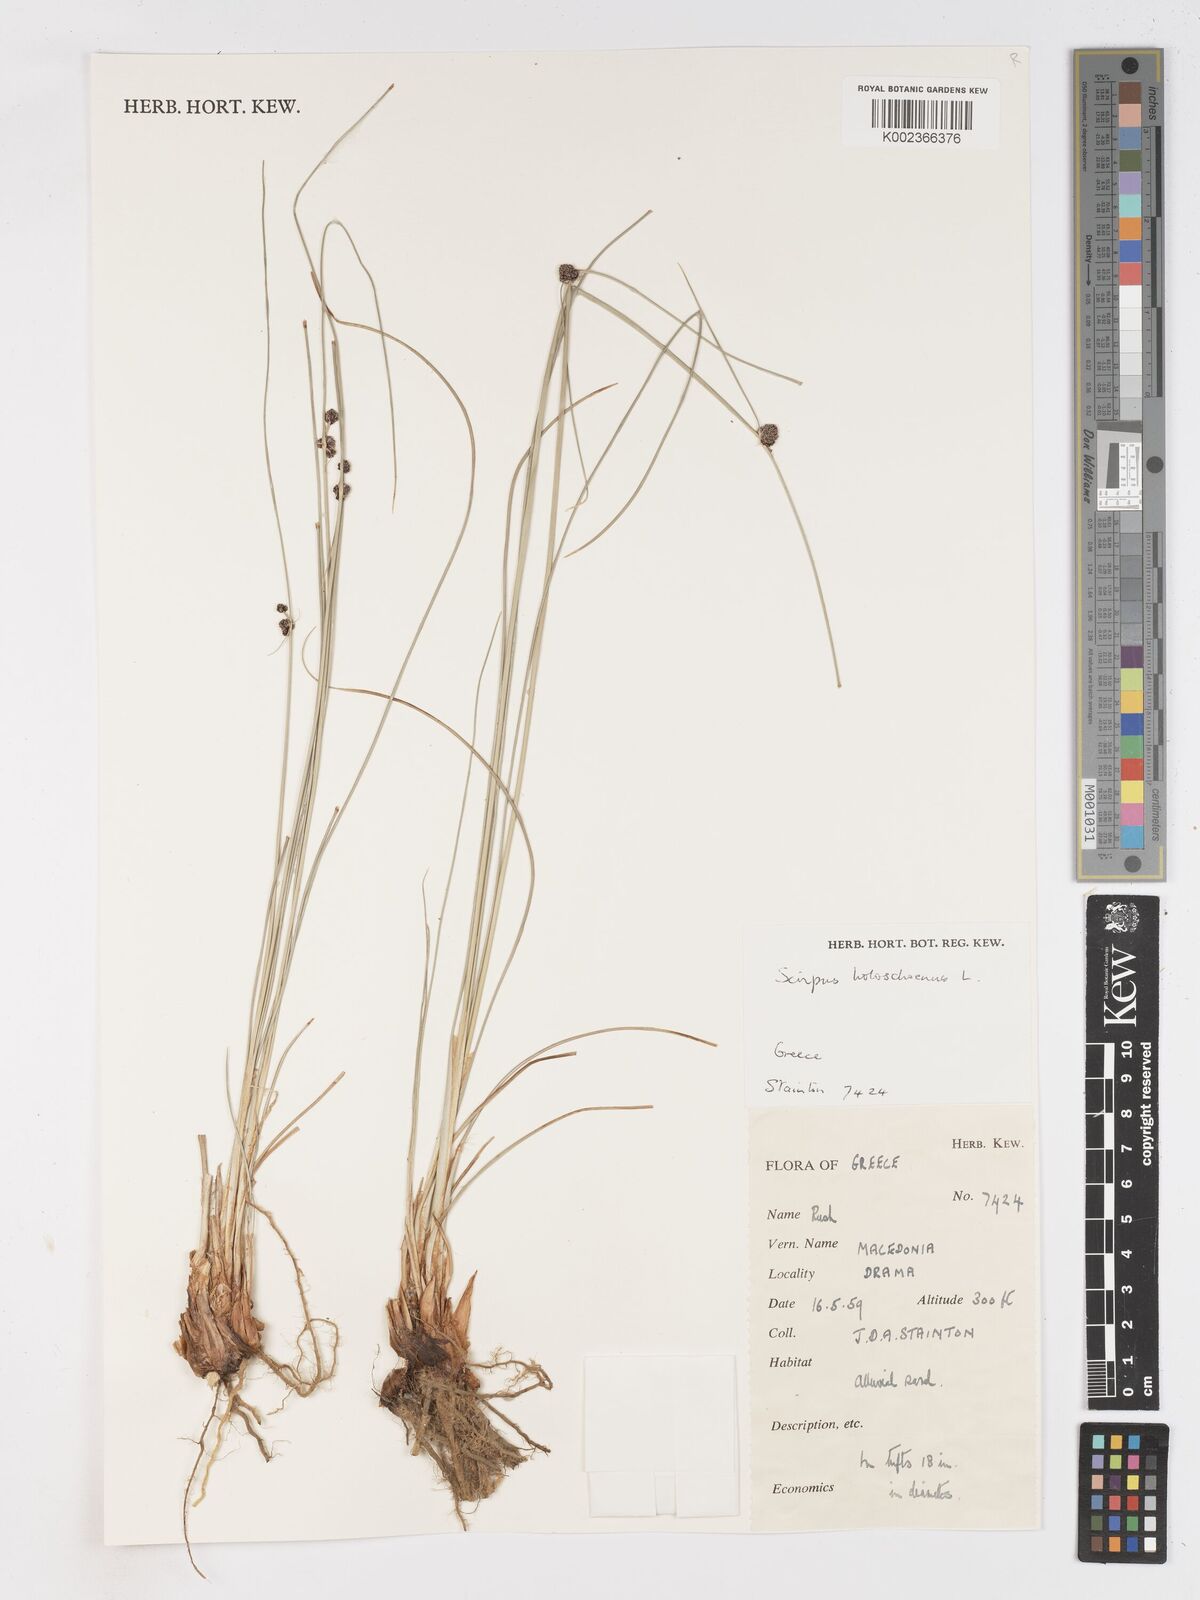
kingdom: Plantae
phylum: Tracheophyta
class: Liliopsida
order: Poales
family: Cyperaceae
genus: Scirpoides
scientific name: Scirpoides holoschoenus
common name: Round-headed club-rush
